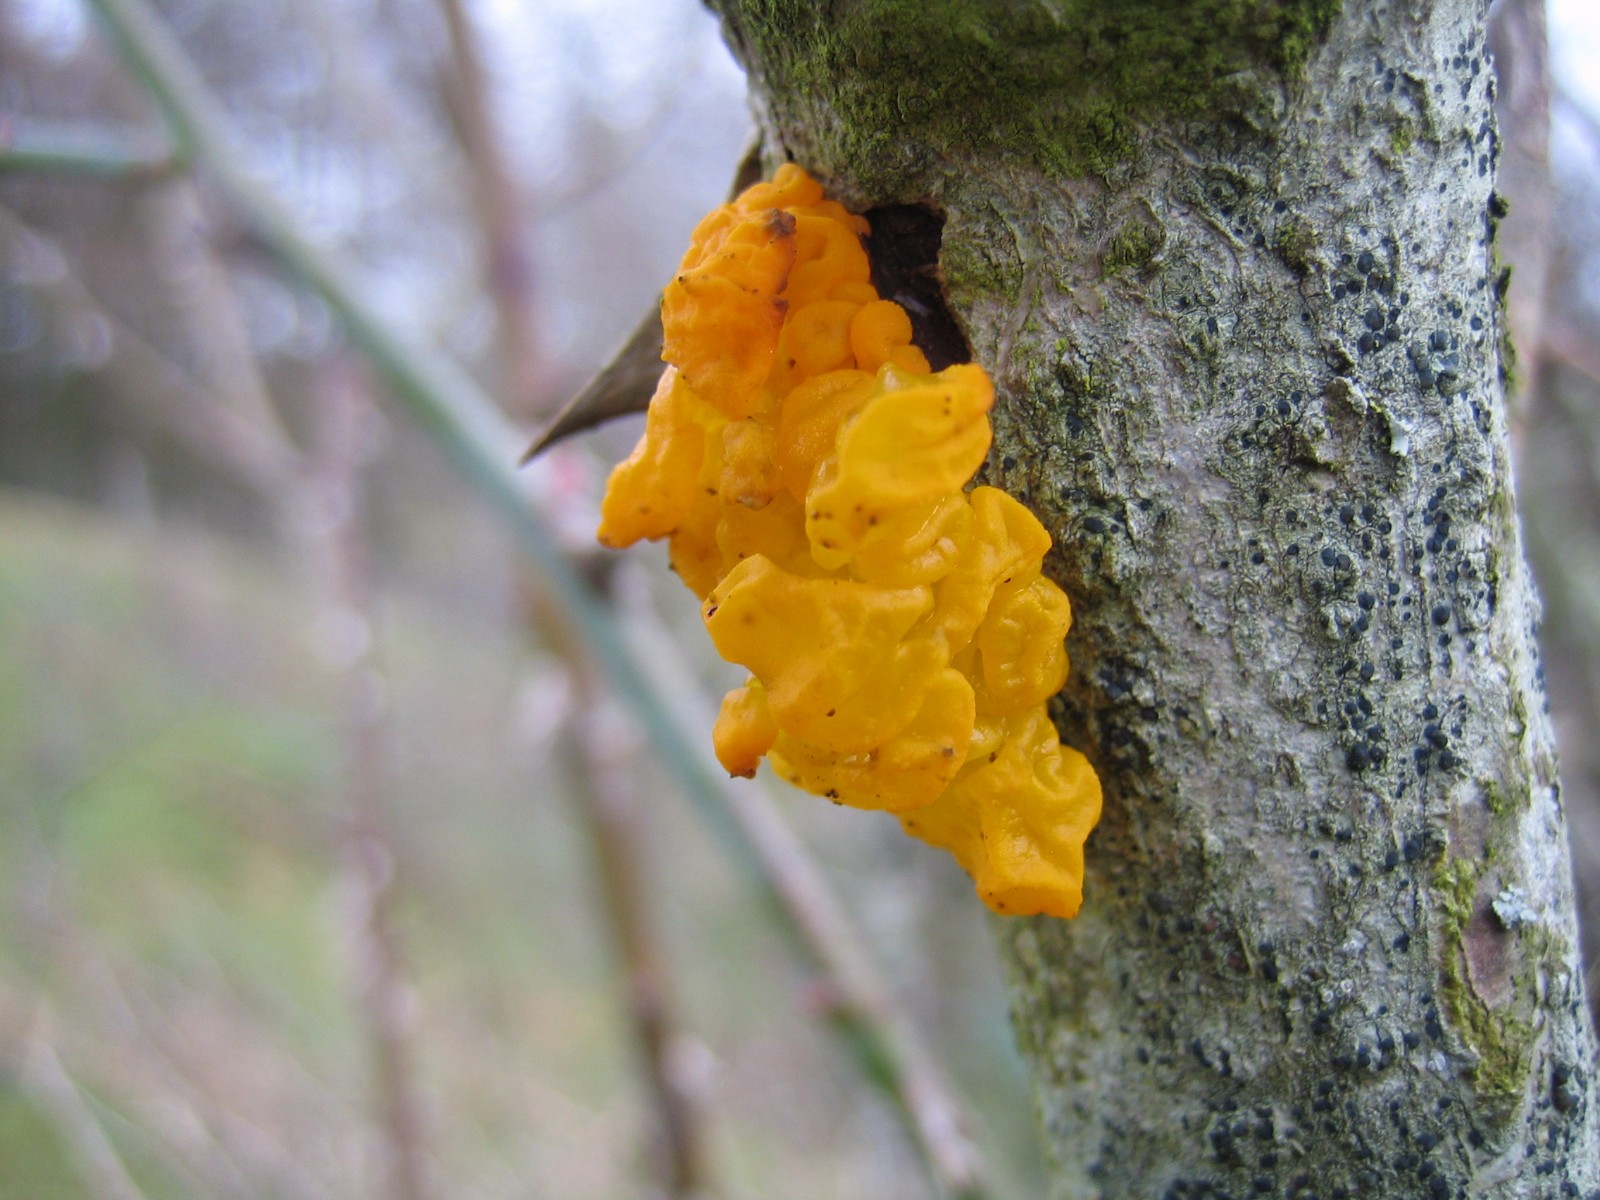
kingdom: Fungi
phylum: Basidiomycota
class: Tremellomycetes
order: Tremellales
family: Tremellaceae
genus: Tremella
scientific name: Tremella mesenterica
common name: gul bævresvamp
